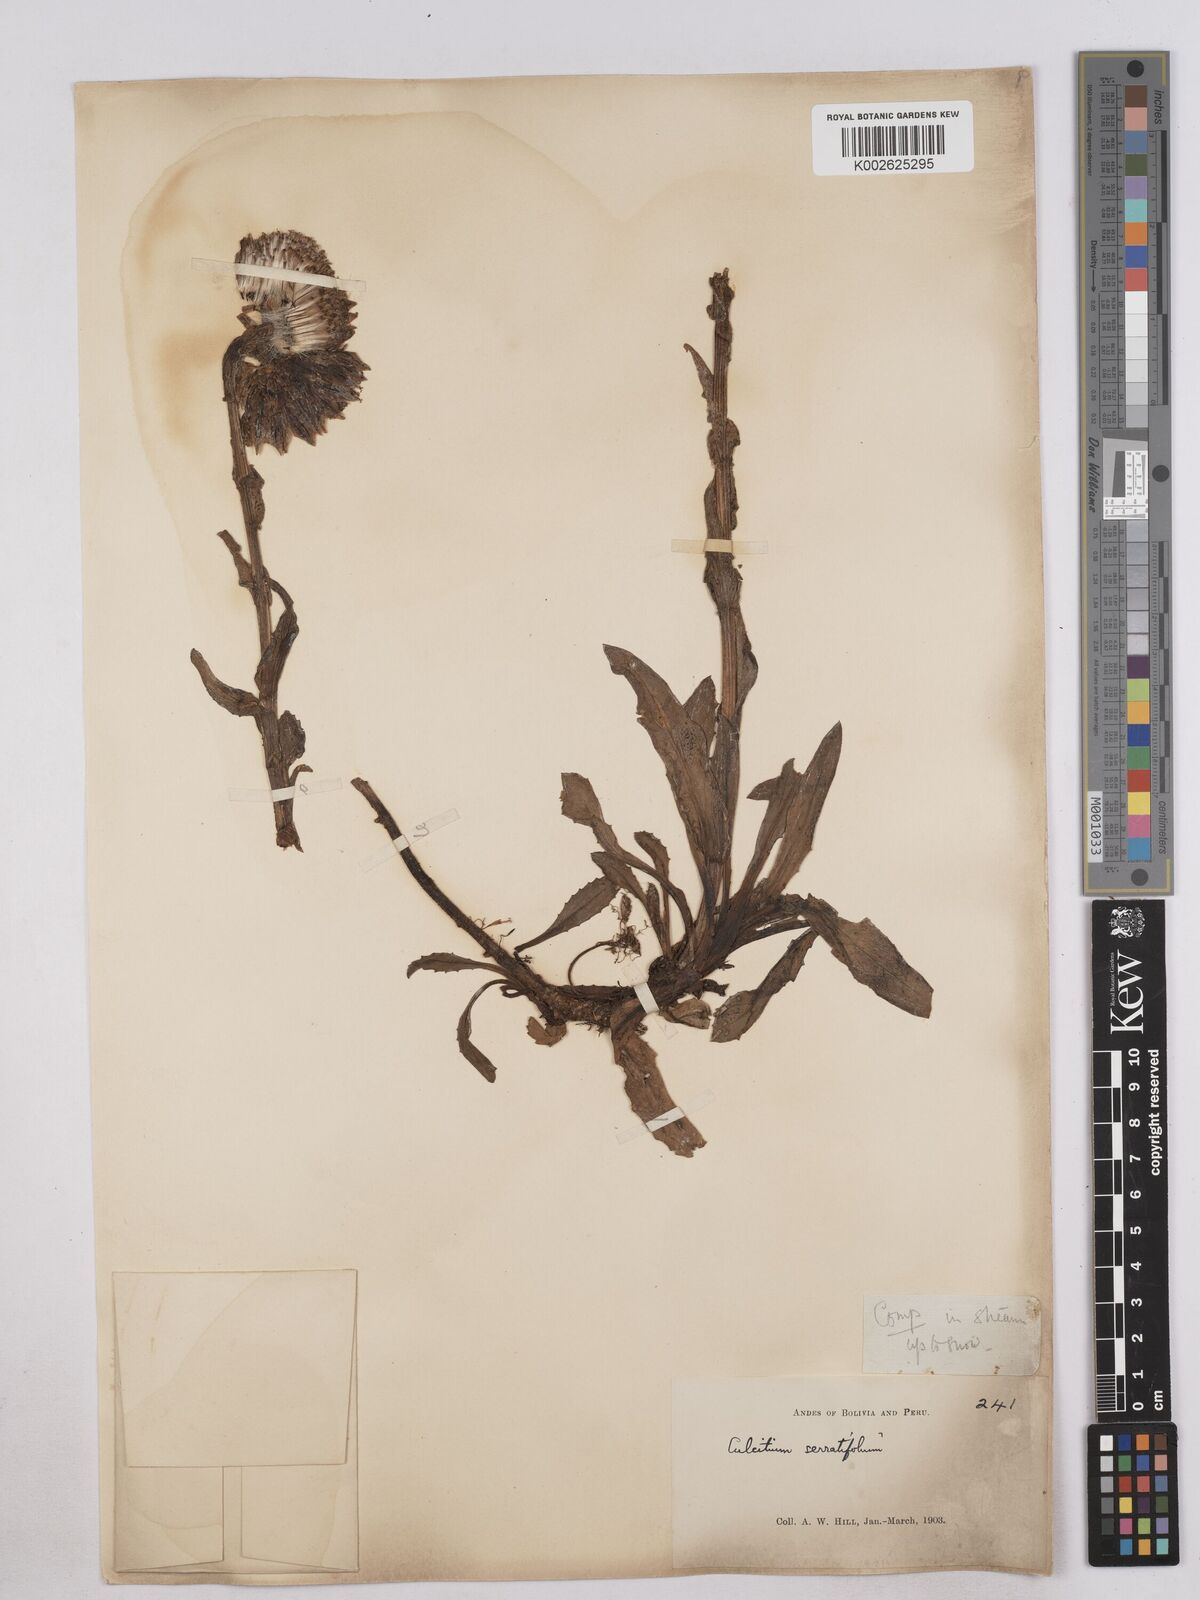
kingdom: Plantae
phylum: Tracheophyta
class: Magnoliopsida
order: Asterales
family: Asteraceae
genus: Senecio
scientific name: Senecio serratifolius
